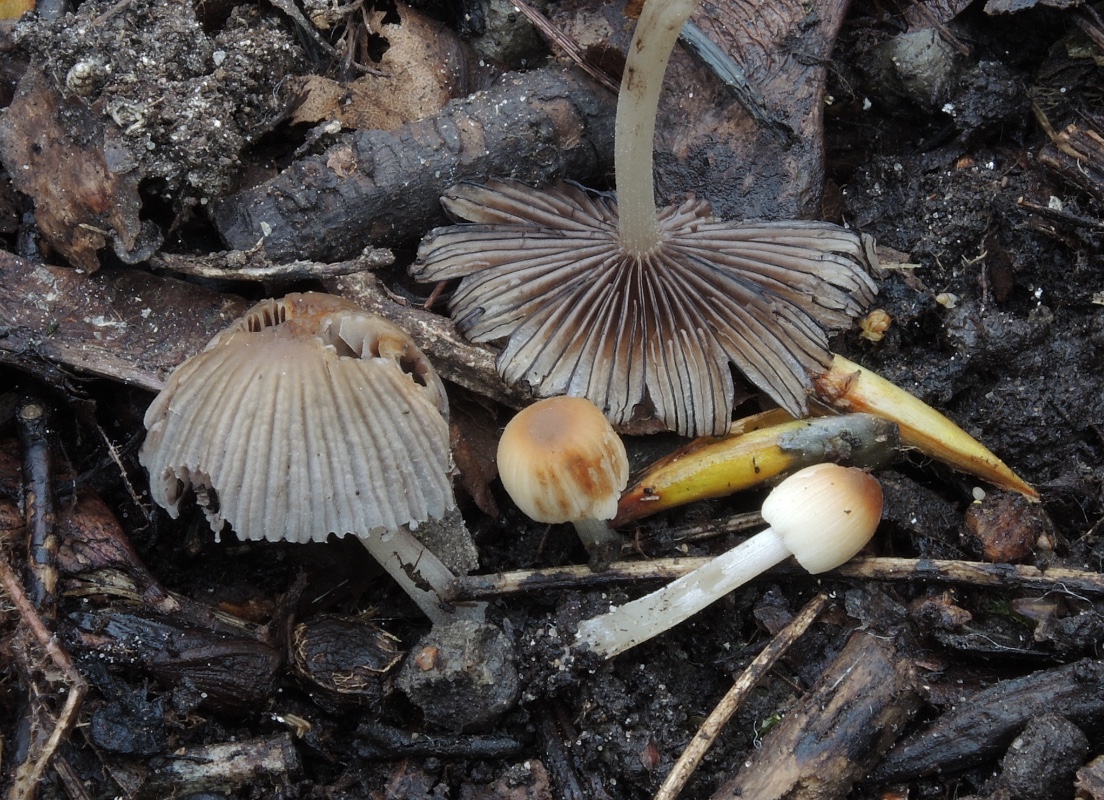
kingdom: Fungi
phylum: Basidiomycota
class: Agaricomycetes
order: Agaricales
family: Psathyrellaceae
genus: Tulosesus
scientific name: Tulosesus subimpatiens
